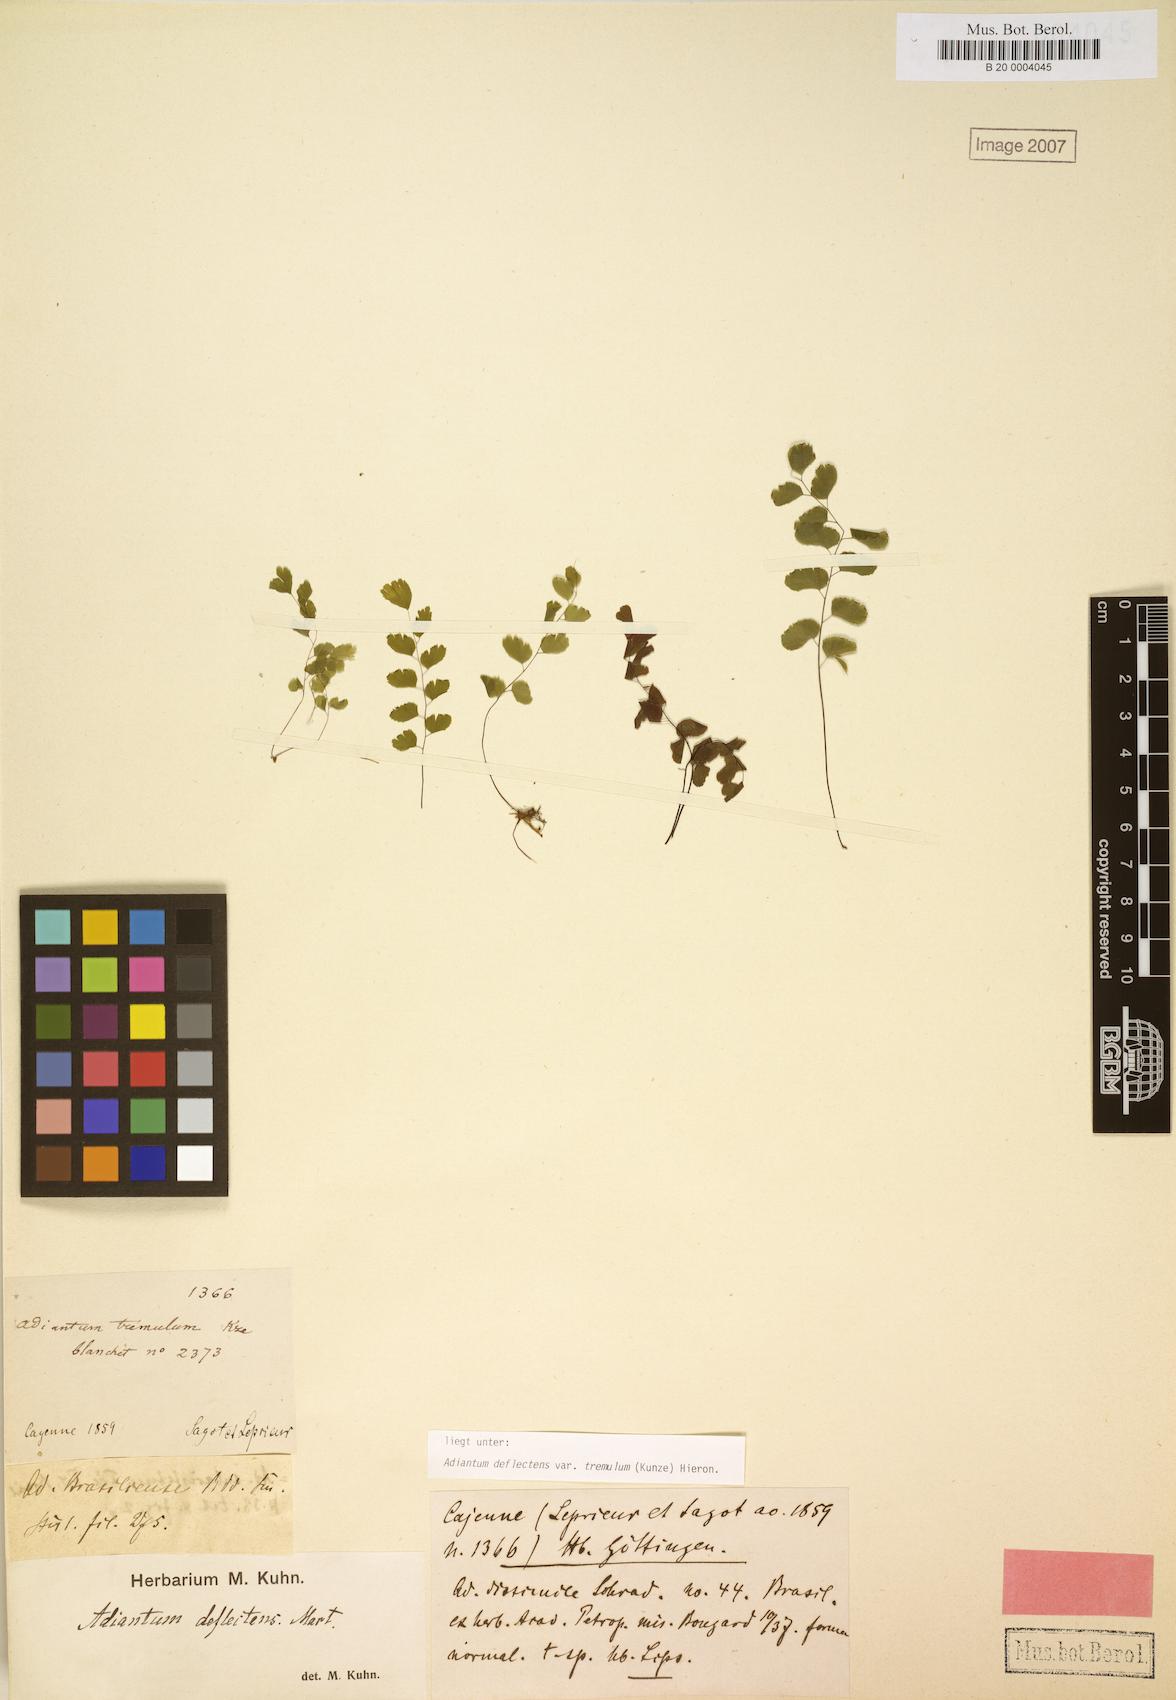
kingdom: Plantae
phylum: Tracheophyta
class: Polypodiopsida
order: Polypodiales
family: Pteridaceae
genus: Adiantum
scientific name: Adiantum deflectens
